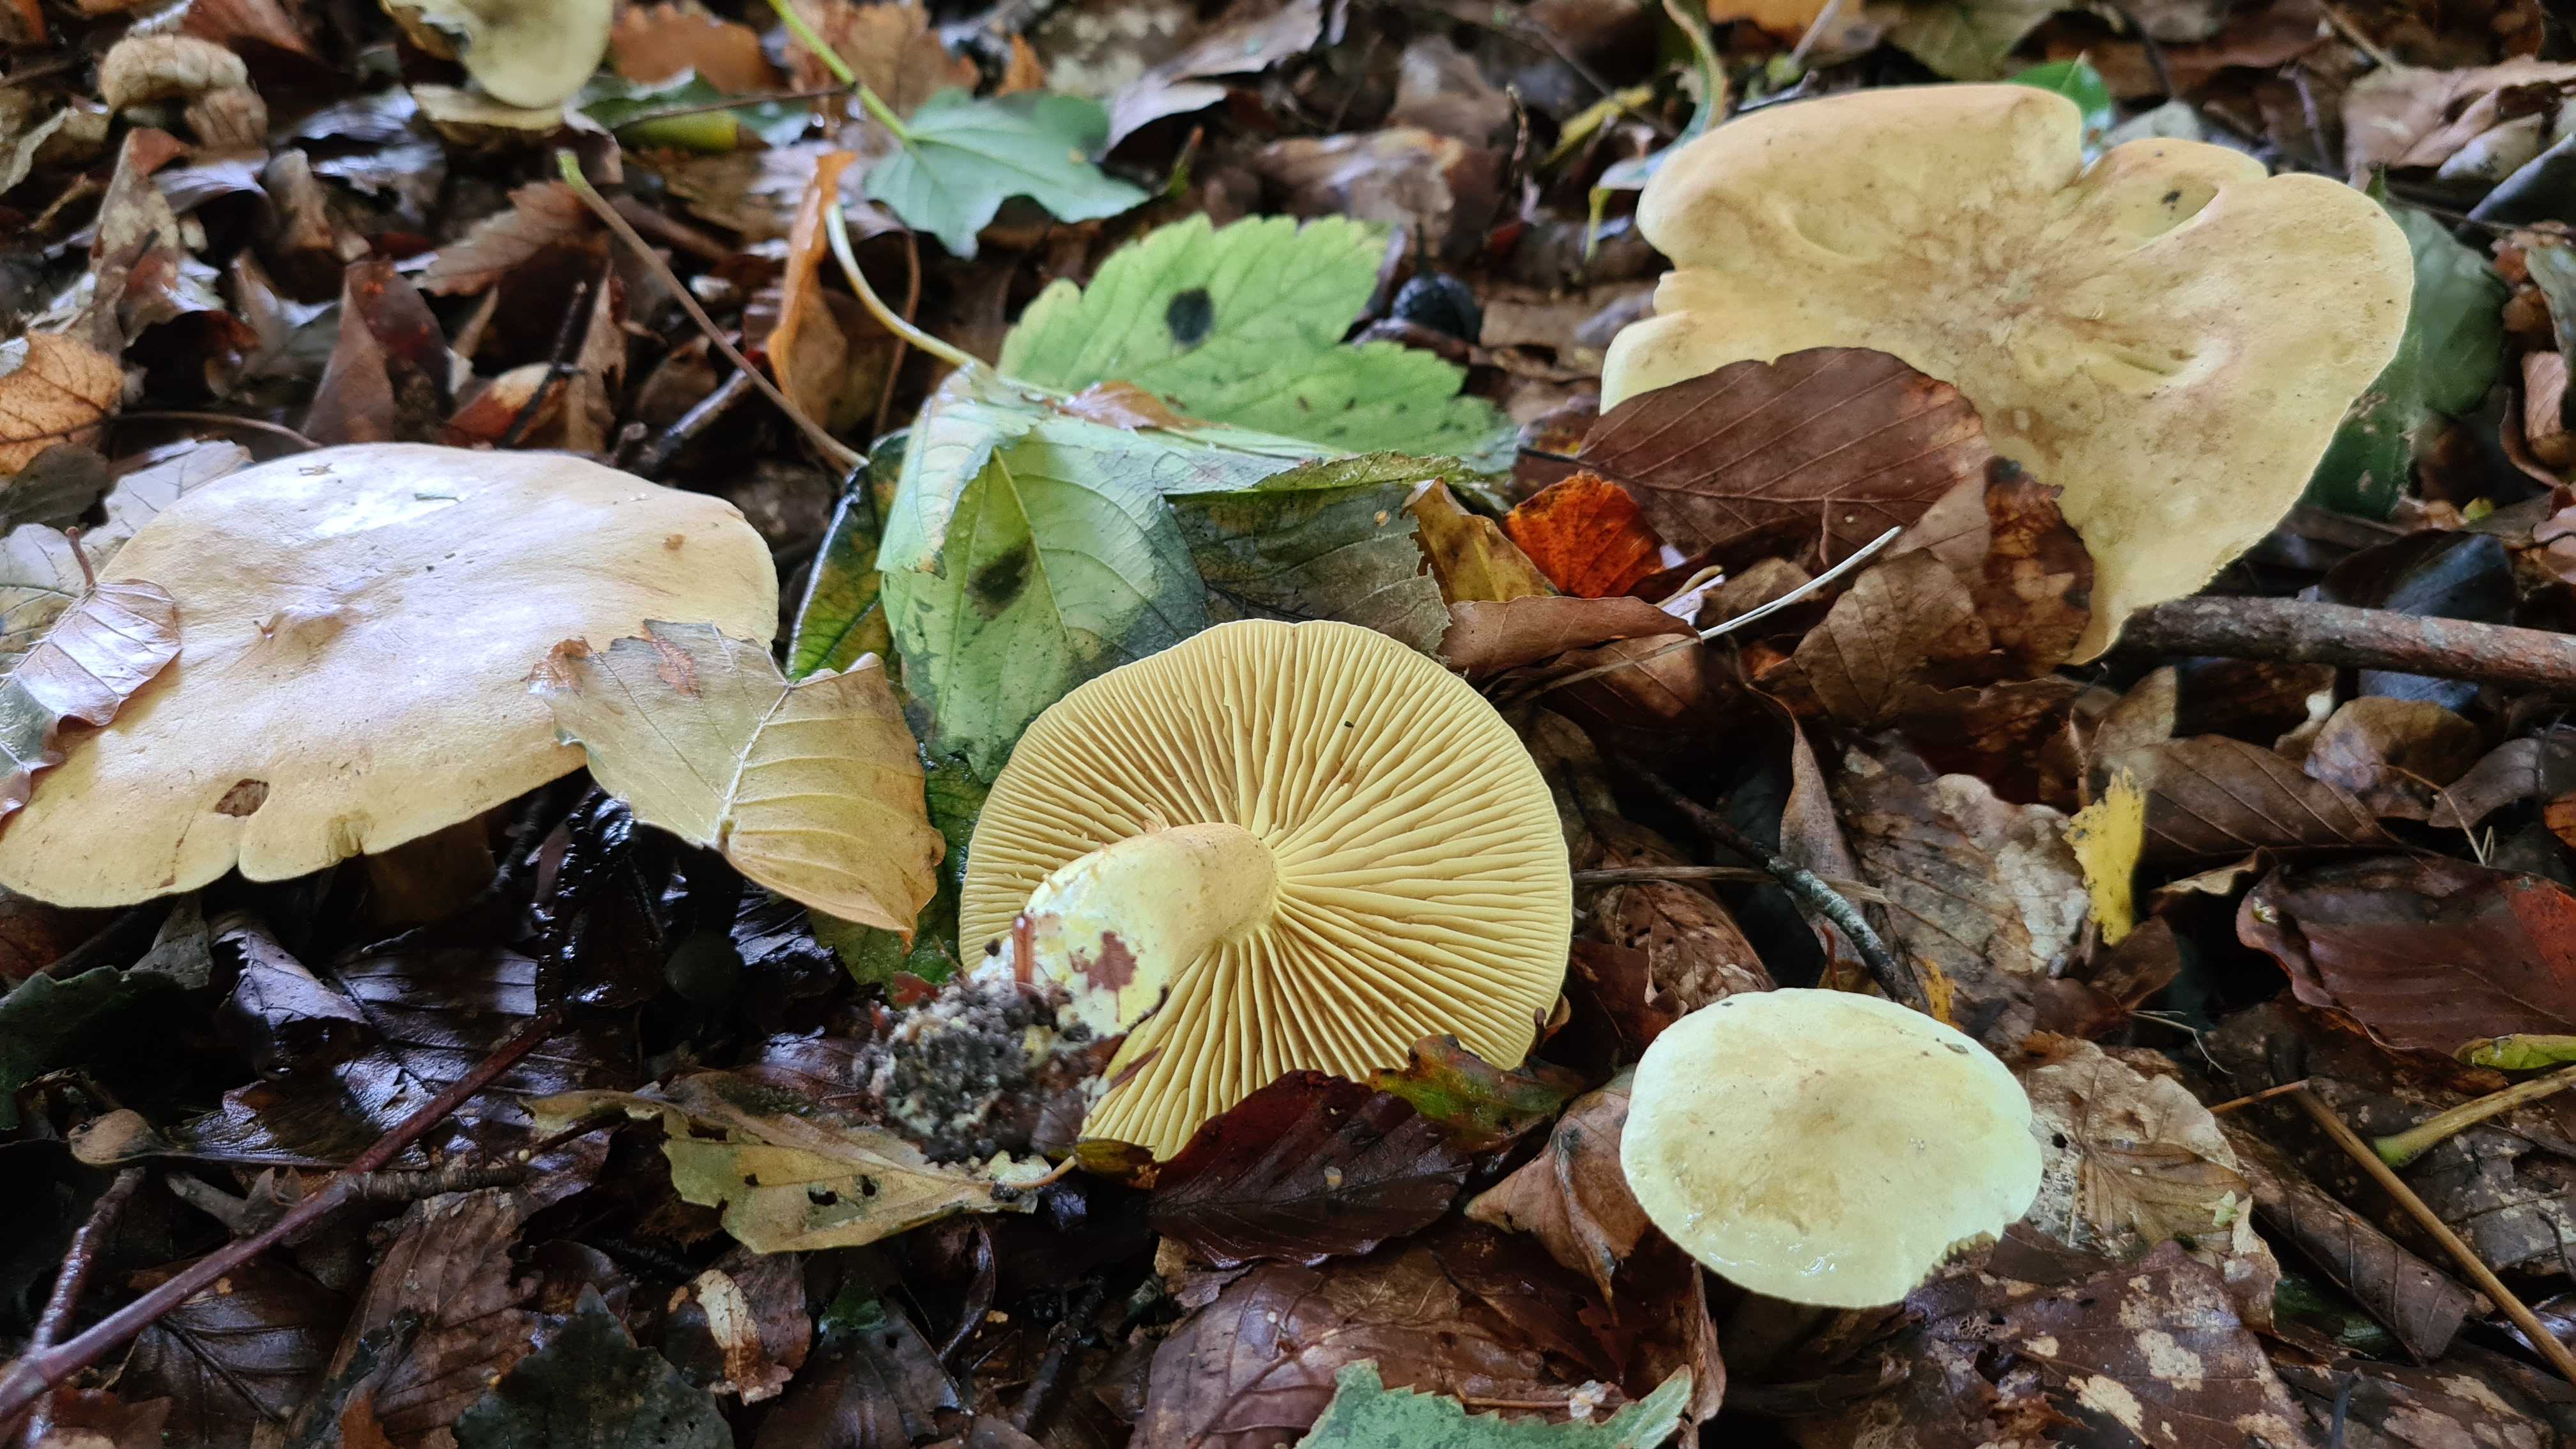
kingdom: Fungi
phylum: Basidiomycota
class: Agaricomycetes
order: Agaricales
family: Tricholomataceae
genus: Tricholoma
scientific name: Tricholoma sulphureum
